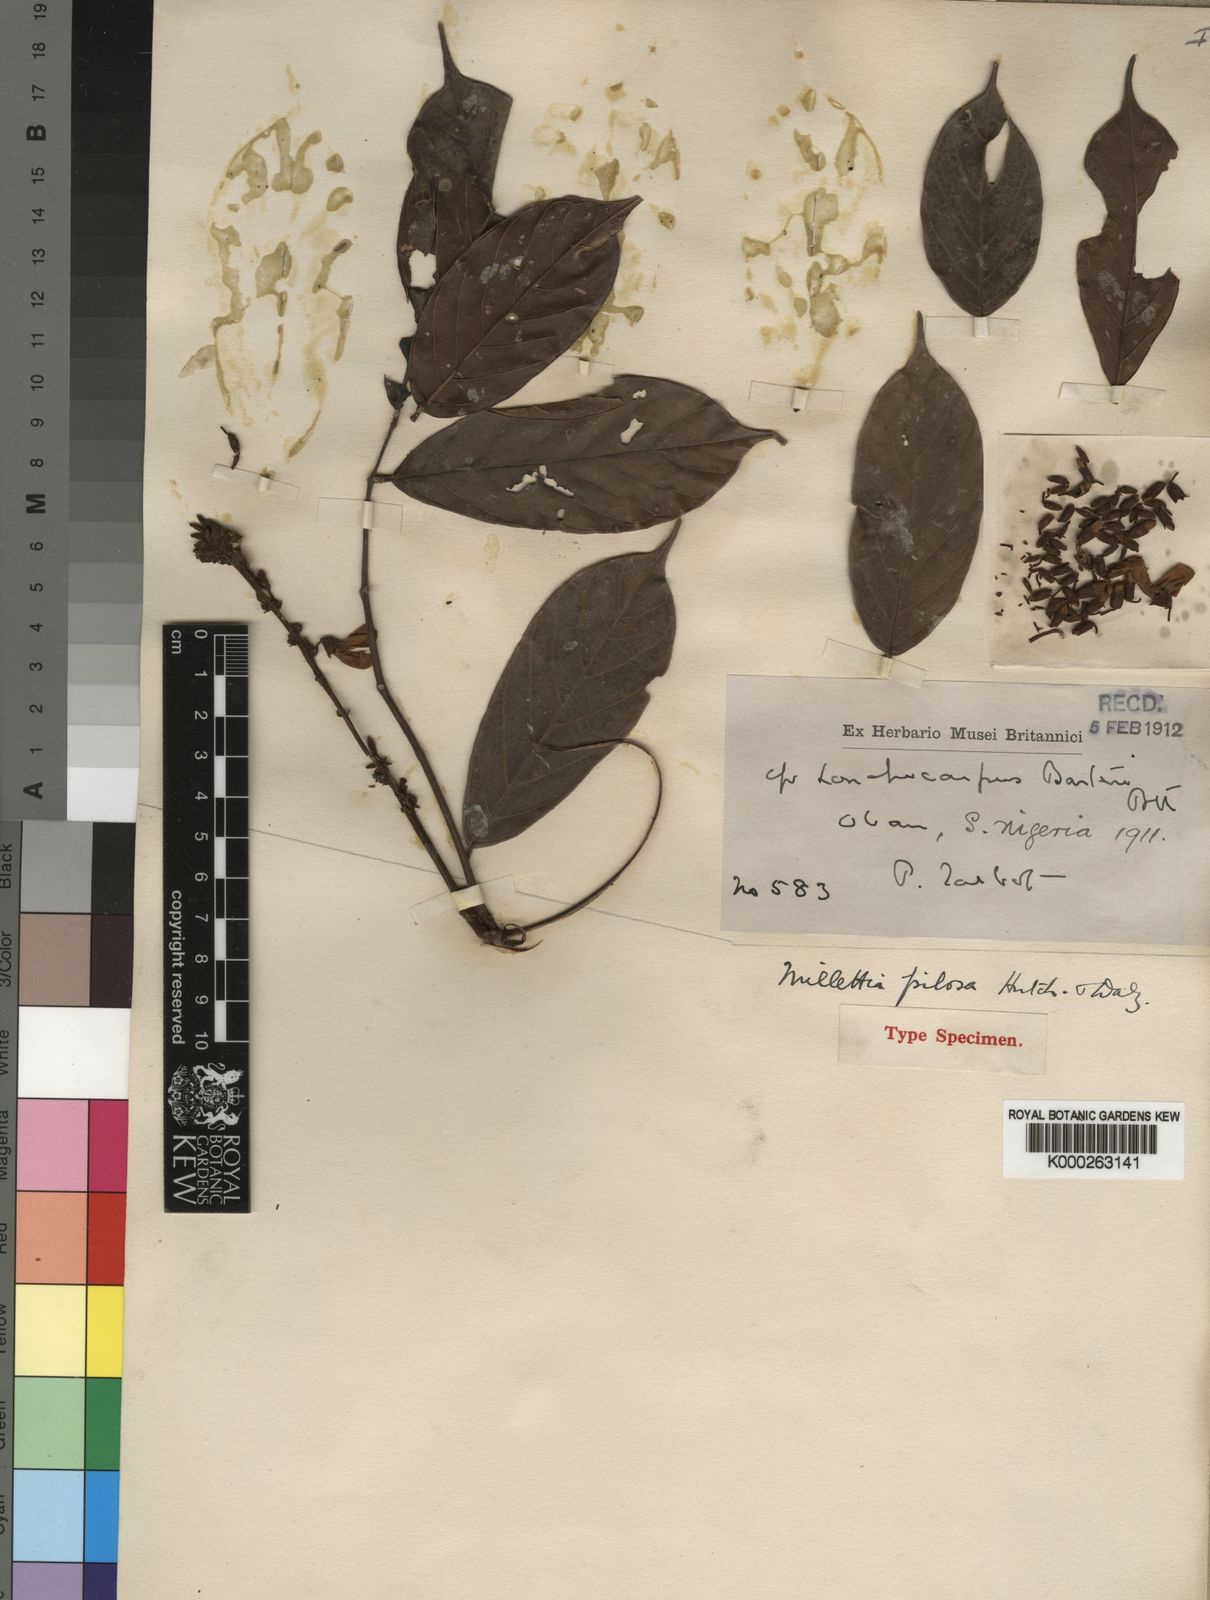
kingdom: Plantae
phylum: Tracheophyta
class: Magnoliopsida
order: Fabales
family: Fabaceae
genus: Millettia
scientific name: Millettia pilosa
